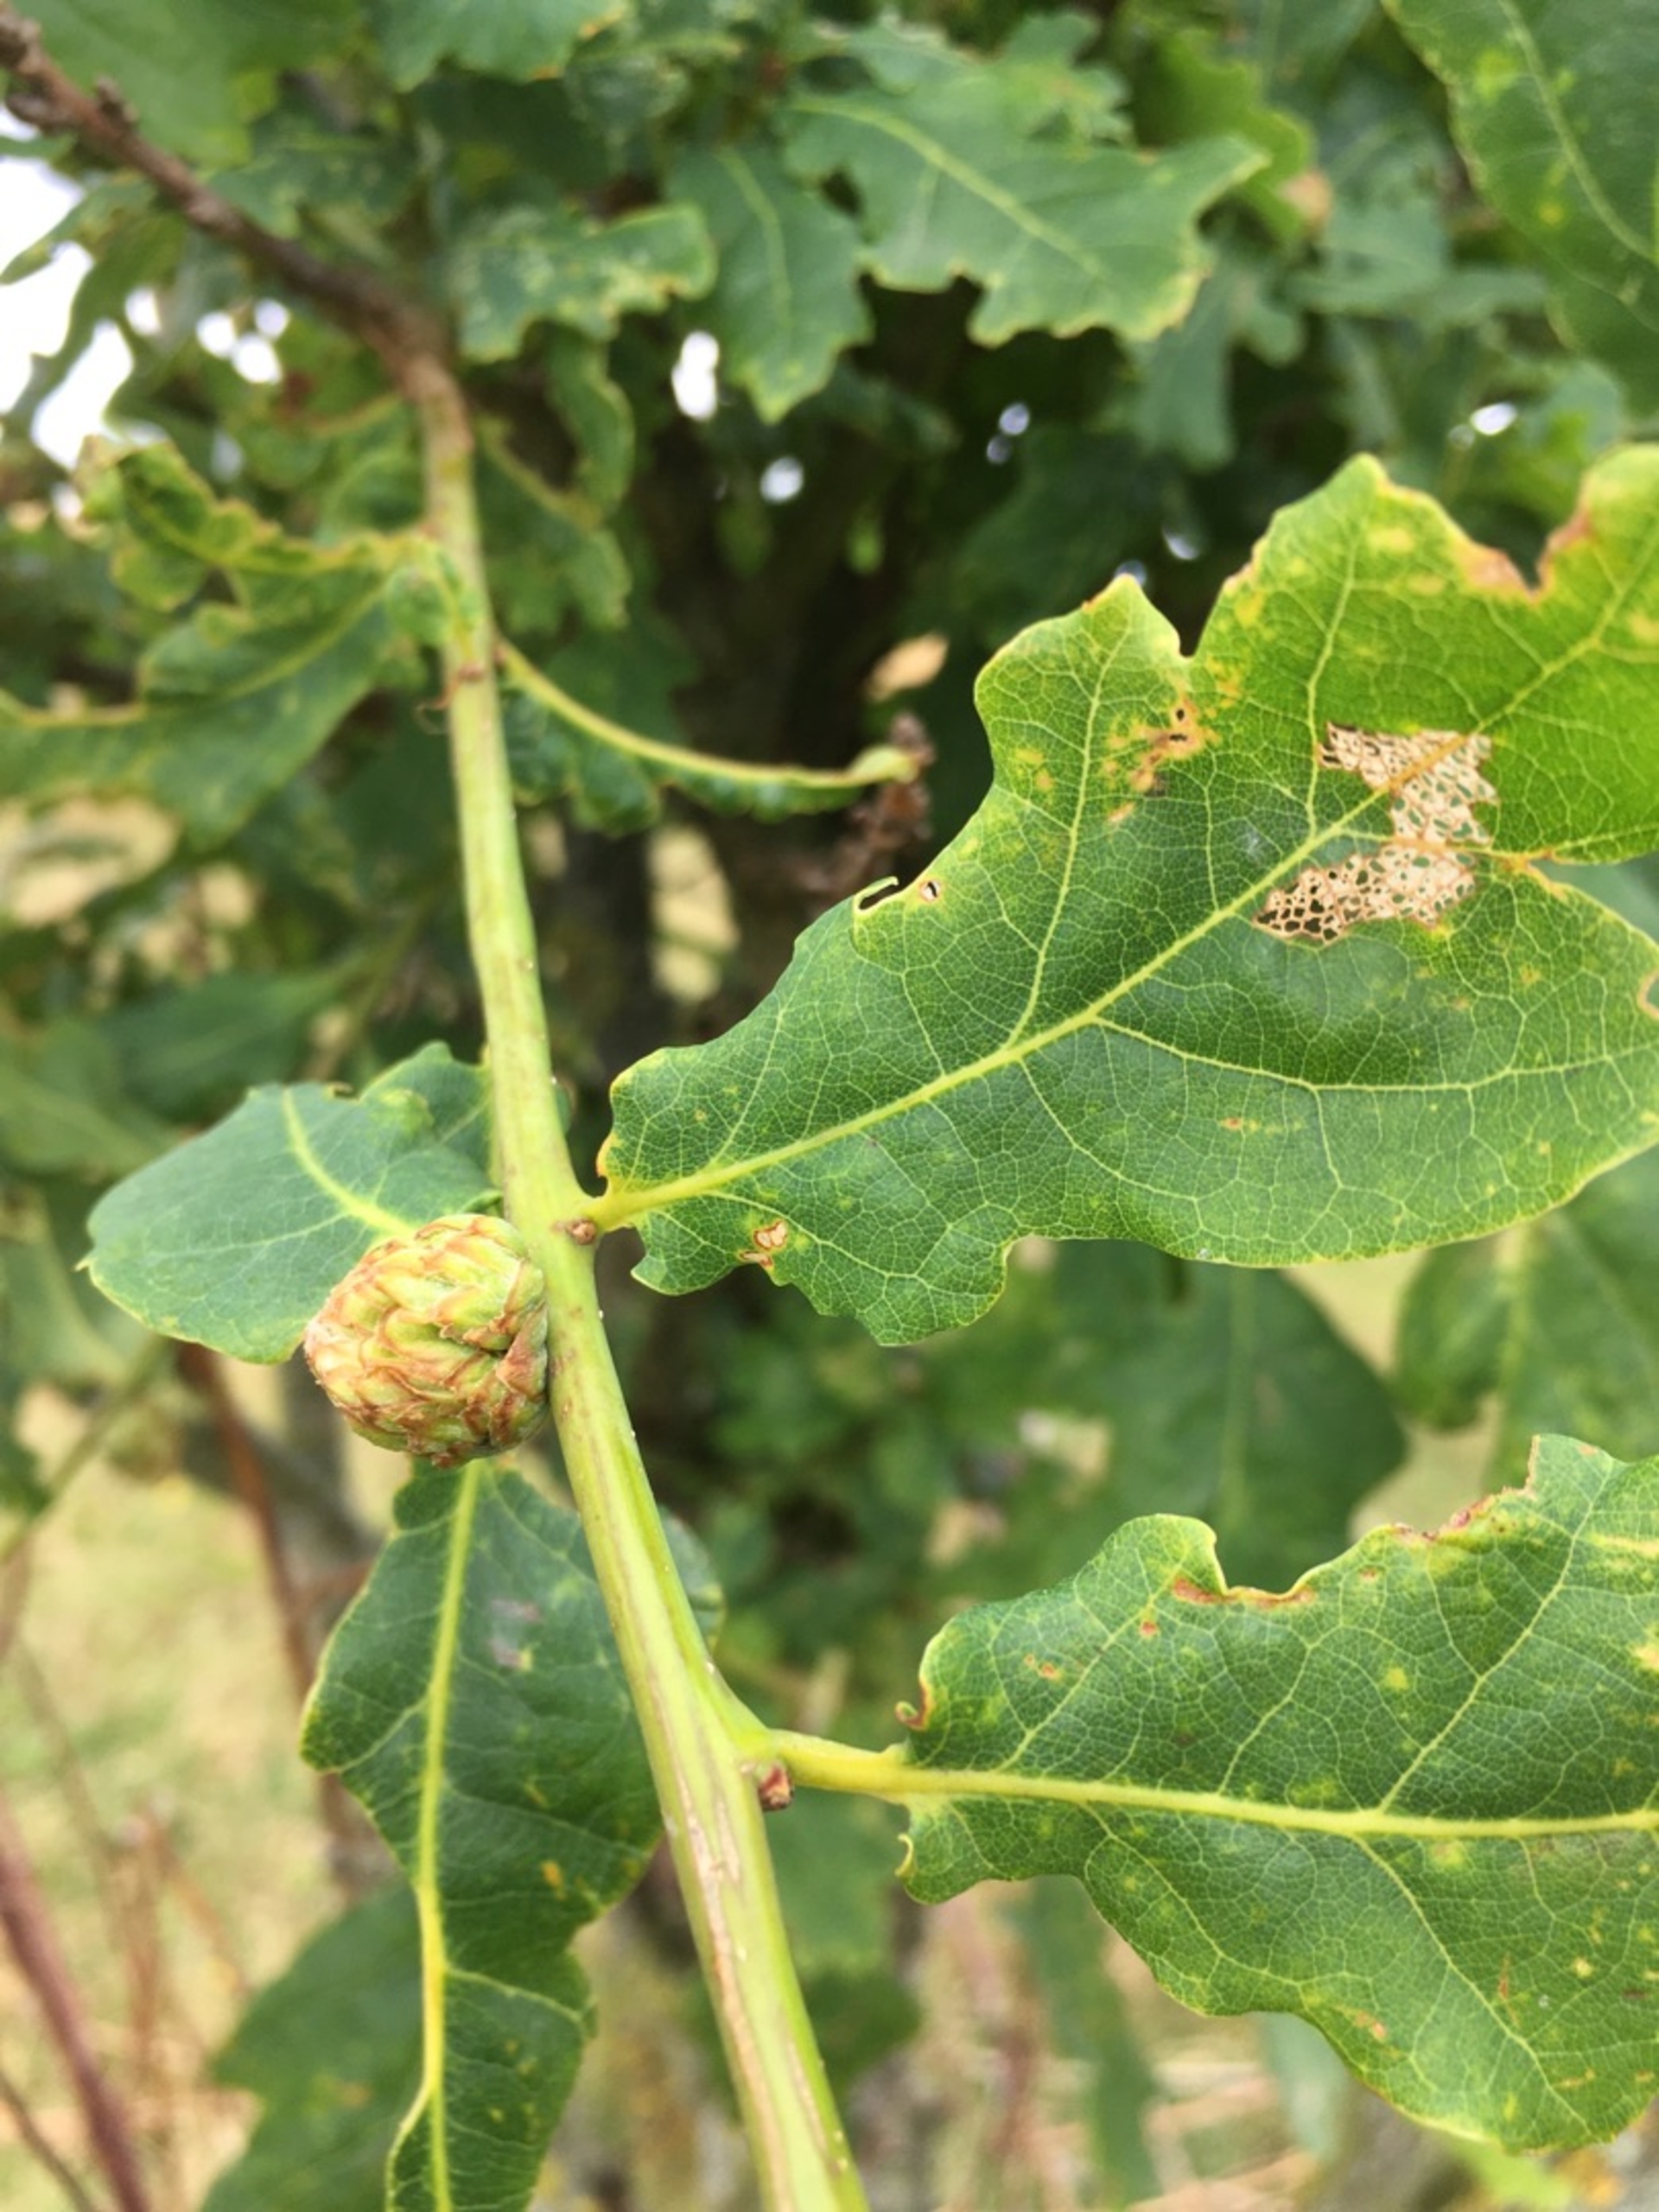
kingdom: Animalia
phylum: Arthropoda
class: Insecta
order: Hymenoptera
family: Cynipidae
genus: Andricus
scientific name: Andricus foecundatrix
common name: Artiskokgalhveps
